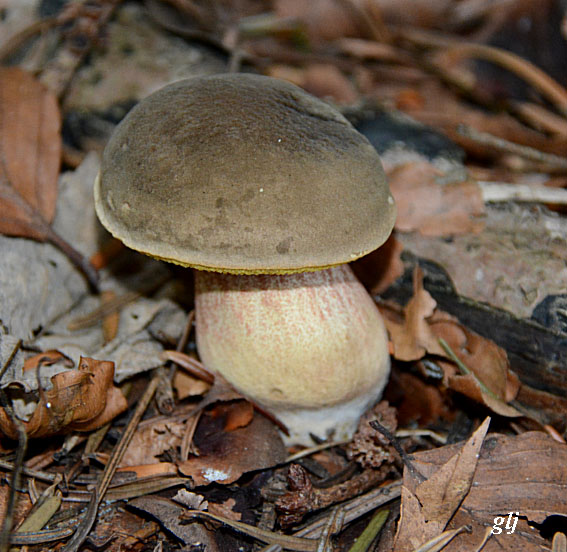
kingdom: Fungi
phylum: Basidiomycota
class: Agaricomycetes
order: Boletales
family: Boletaceae
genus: Xerocomellus
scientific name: Xerocomellus pruinatus
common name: dugget rørhat
